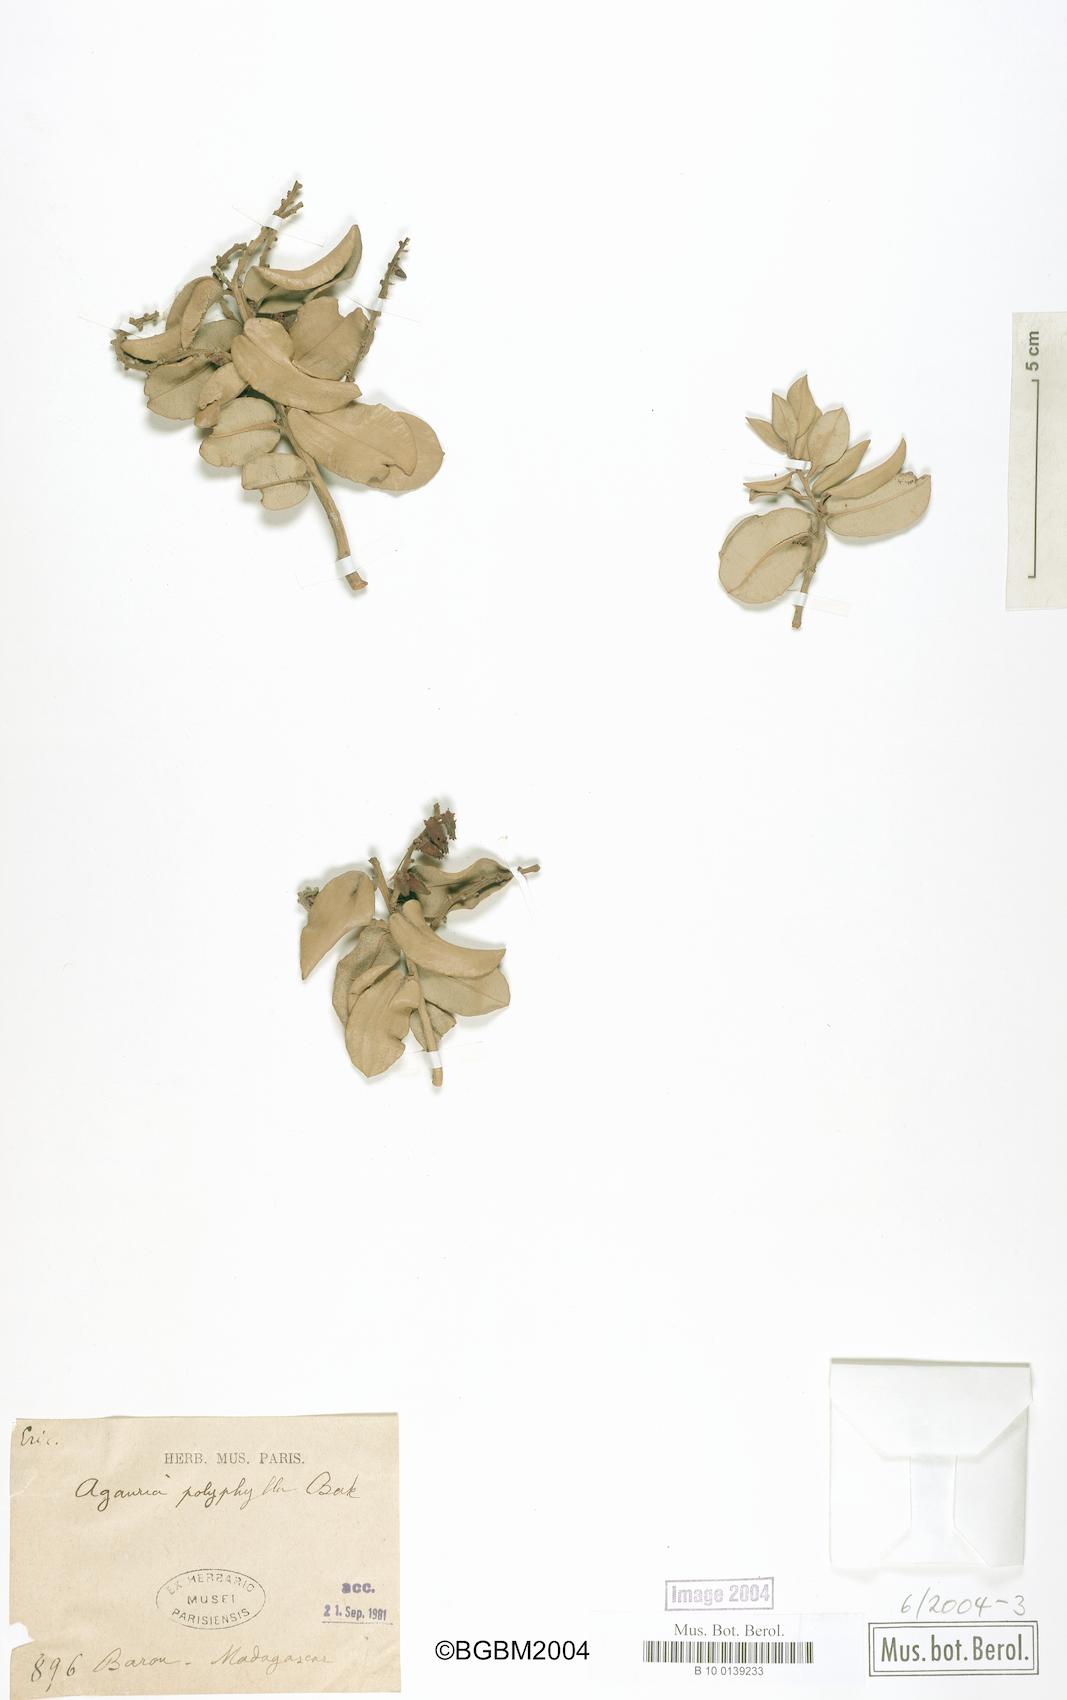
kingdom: Plantae
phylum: Tracheophyta
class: Magnoliopsida
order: Ericales
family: Ericaceae
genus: Agarista
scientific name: Agarista salicifolia
